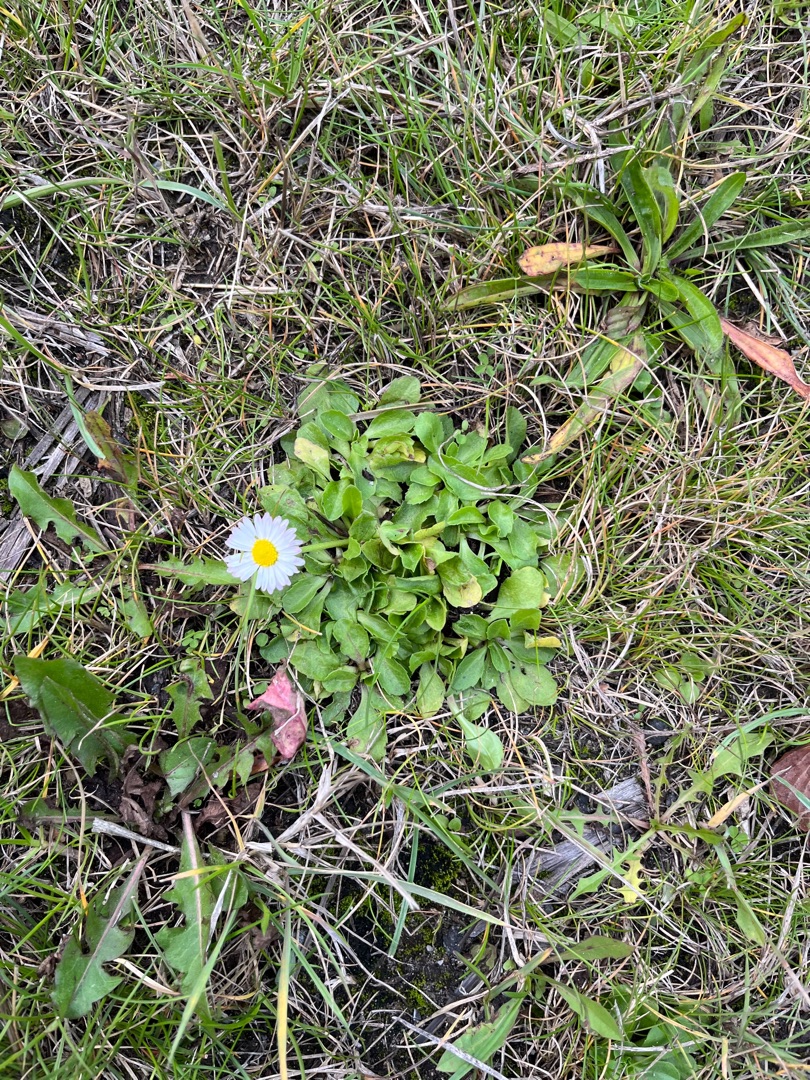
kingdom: Plantae
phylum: Tracheophyta
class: Magnoliopsida
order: Asterales
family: Asteraceae
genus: Bellis
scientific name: Bellis perennis
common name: Tusindfryd
